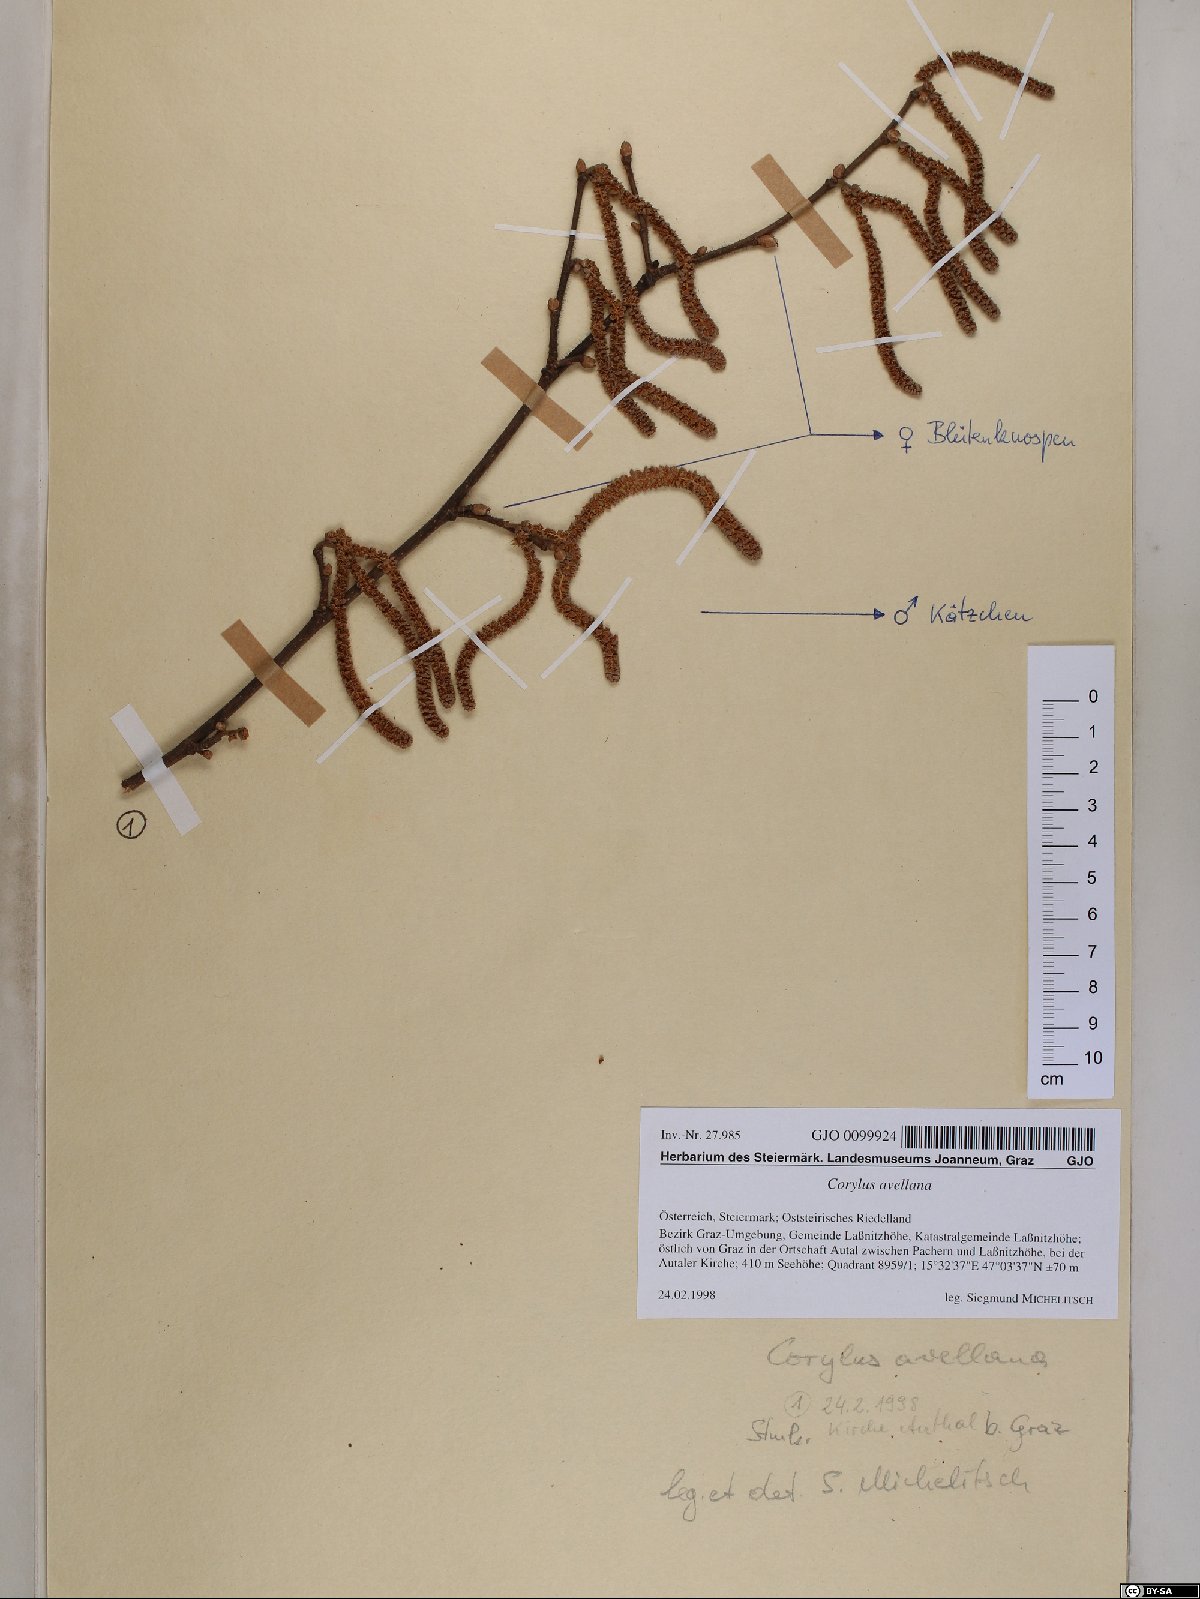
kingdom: Plantae
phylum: Tracheophyta
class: Magnoliopsida
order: Fagales
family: Betulaceae
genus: Corylus
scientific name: Corylus avellana
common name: European hazel
